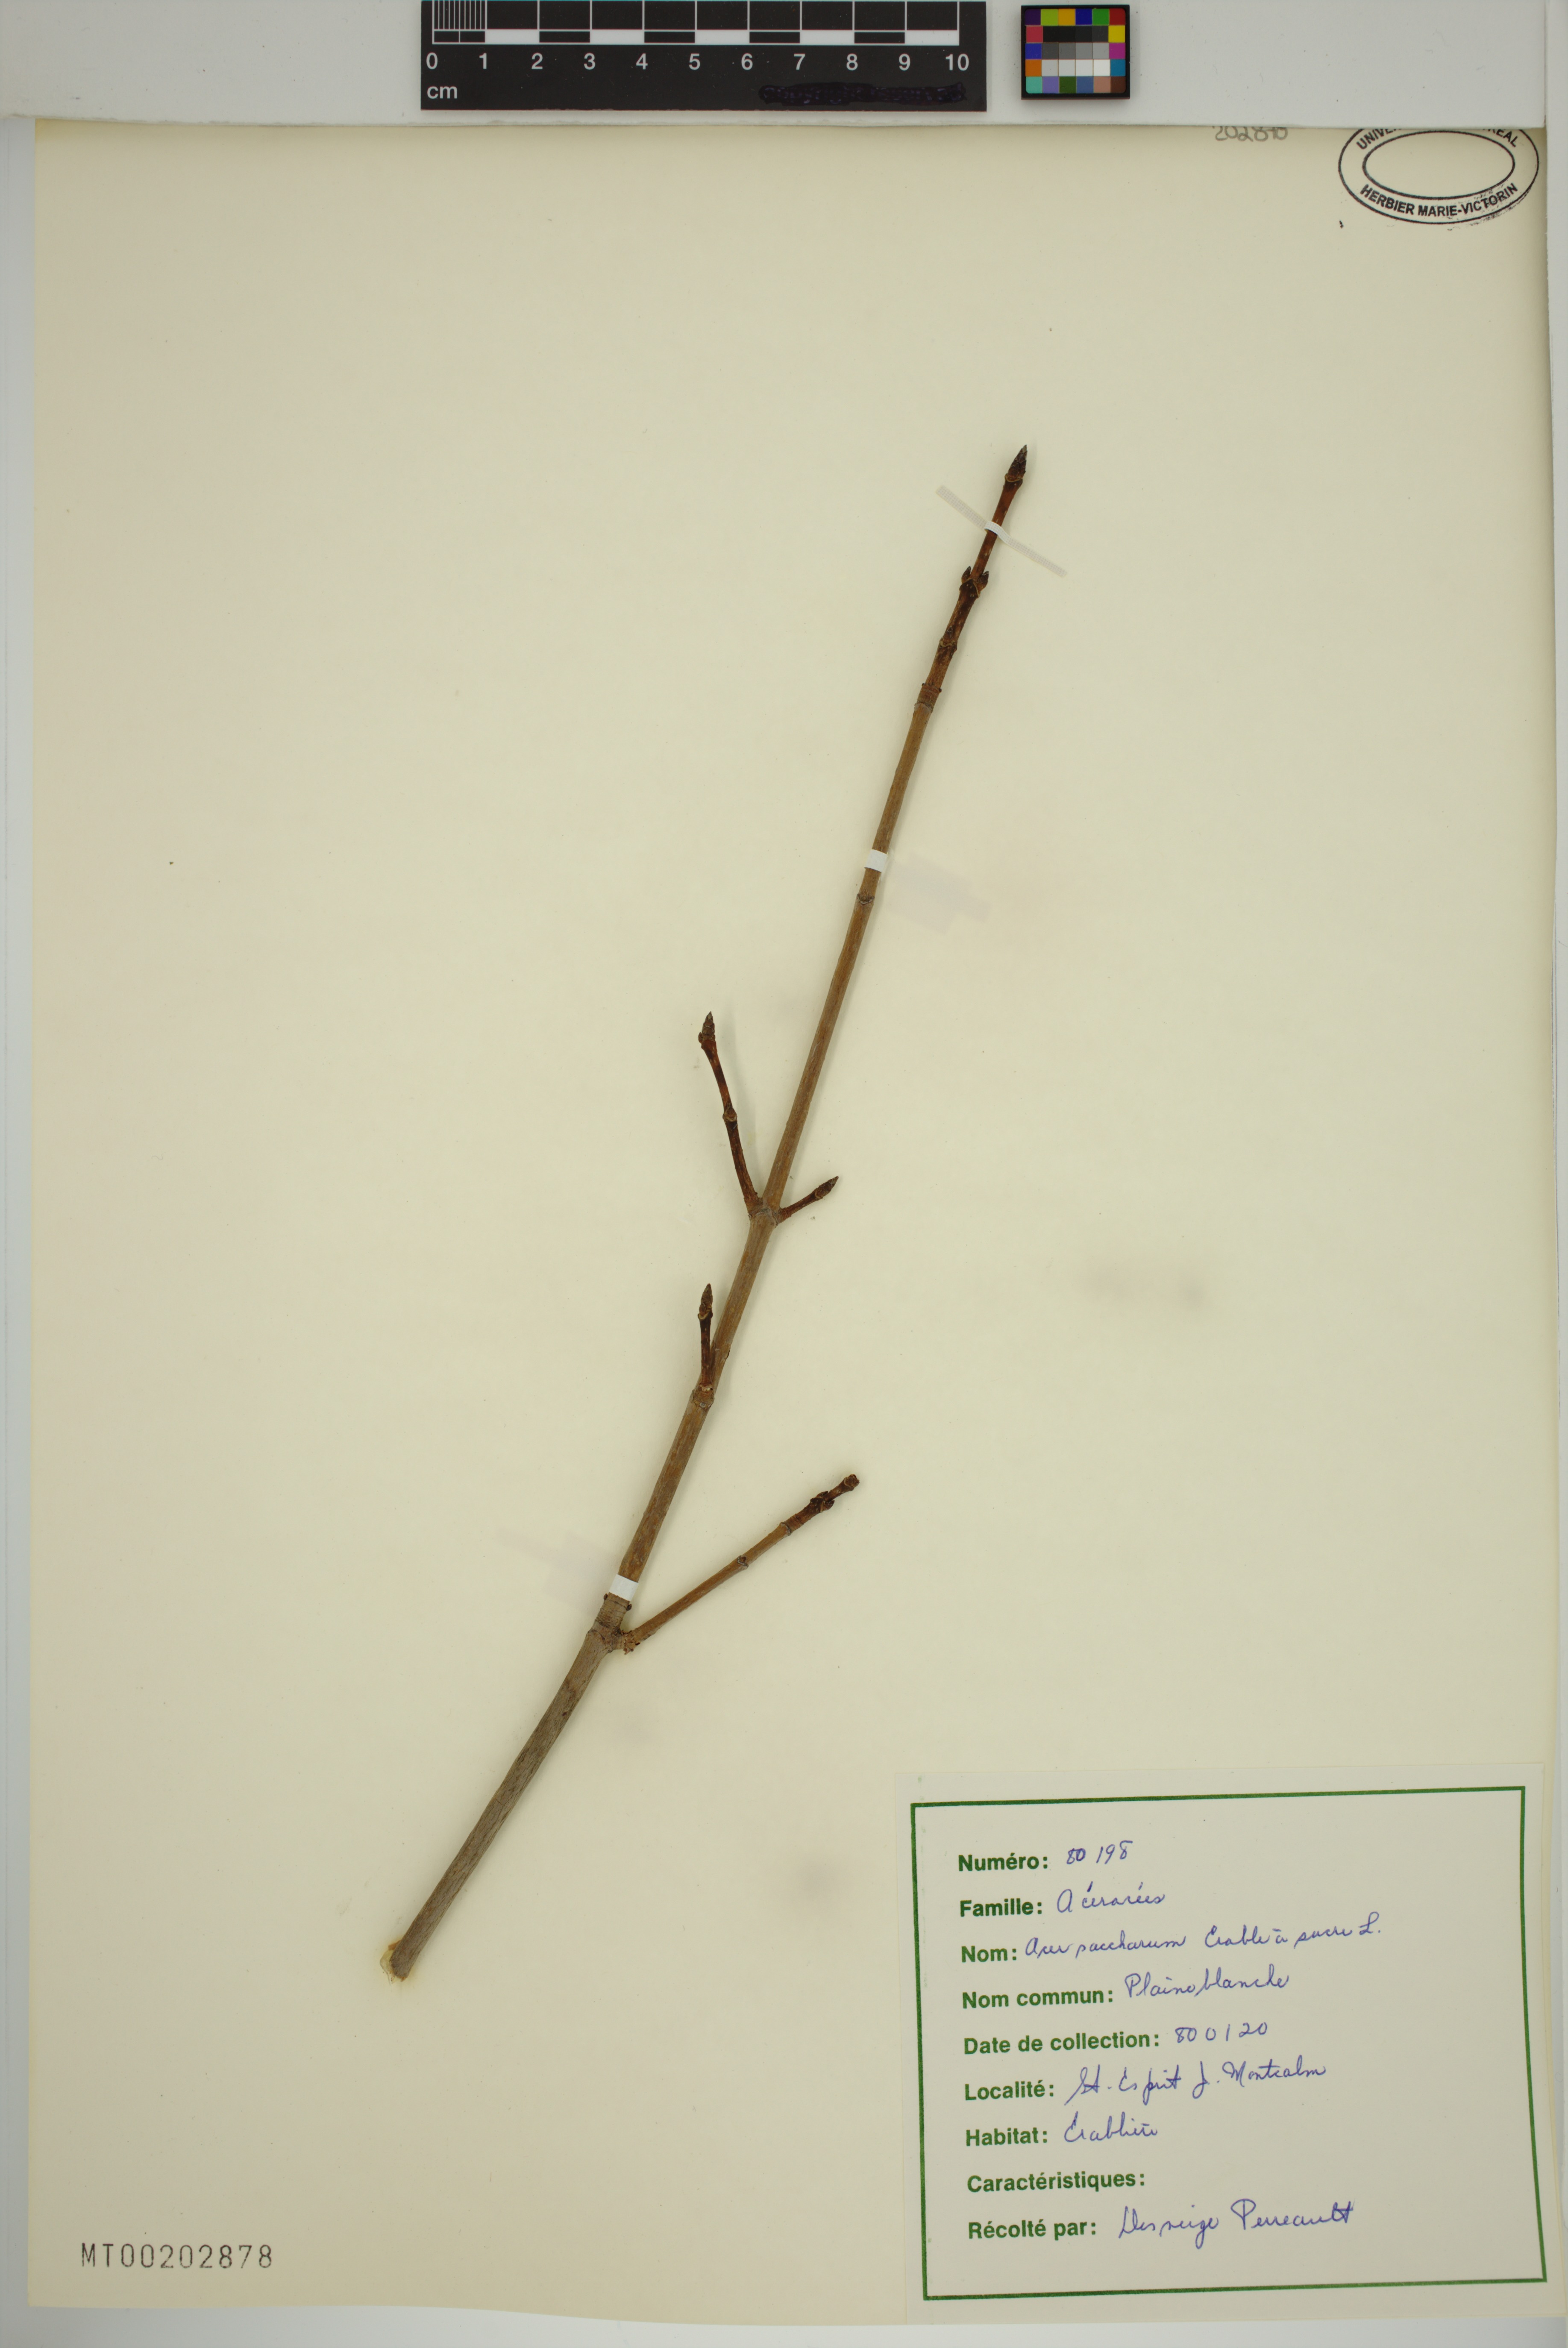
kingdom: Plantae
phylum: Tracheophyta
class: Magnoliopsida
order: Sapindales
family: Sapindaceae
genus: Acer
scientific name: Acer saccharum
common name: Sugar maple
